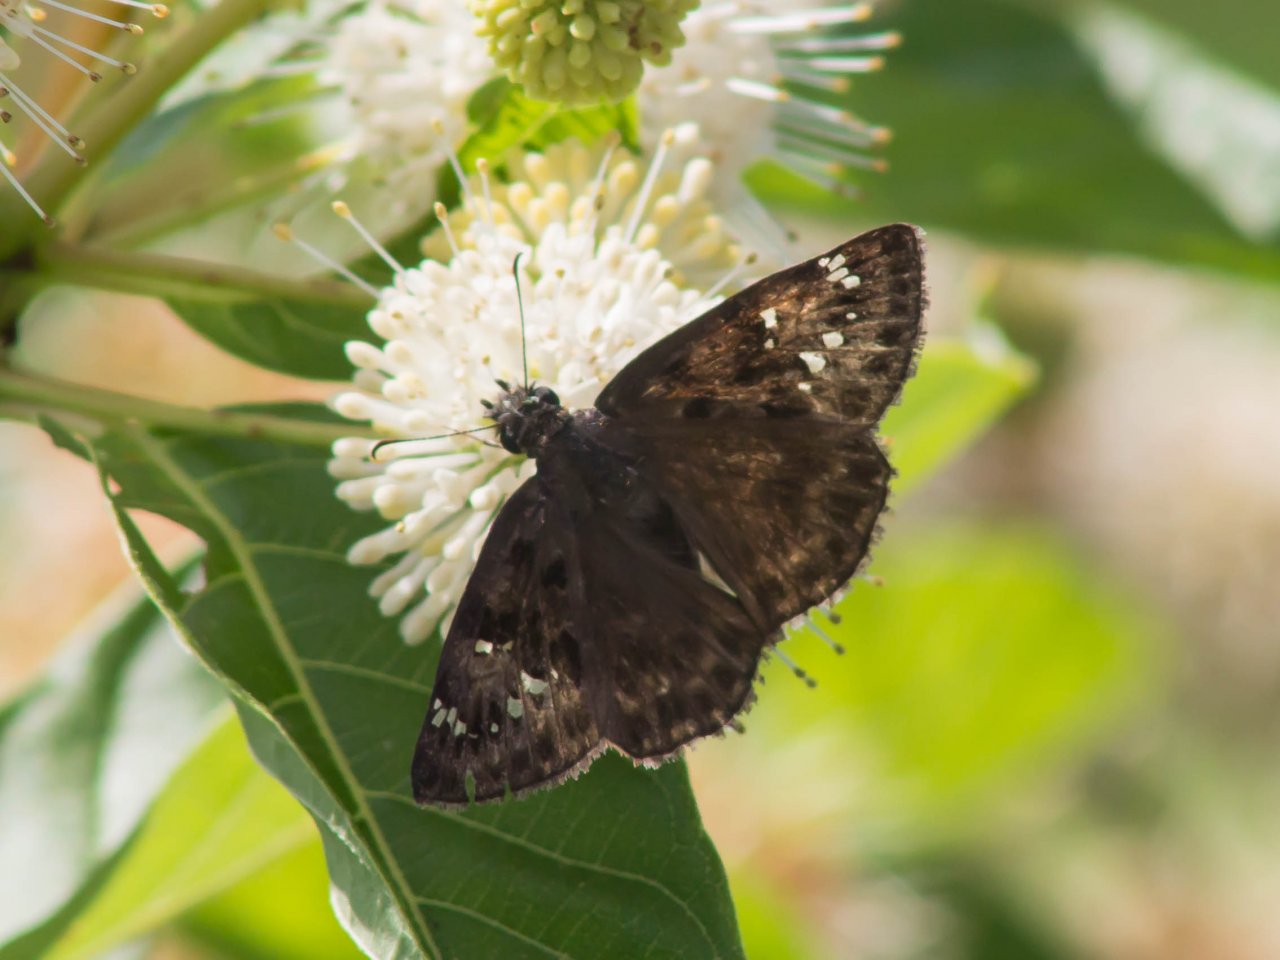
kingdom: Animalia
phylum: Arthropoda
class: Insecta
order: Lepidoptera
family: Hesperiidae
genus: Gesta
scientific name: Gesta
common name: Horace's Duskywing
